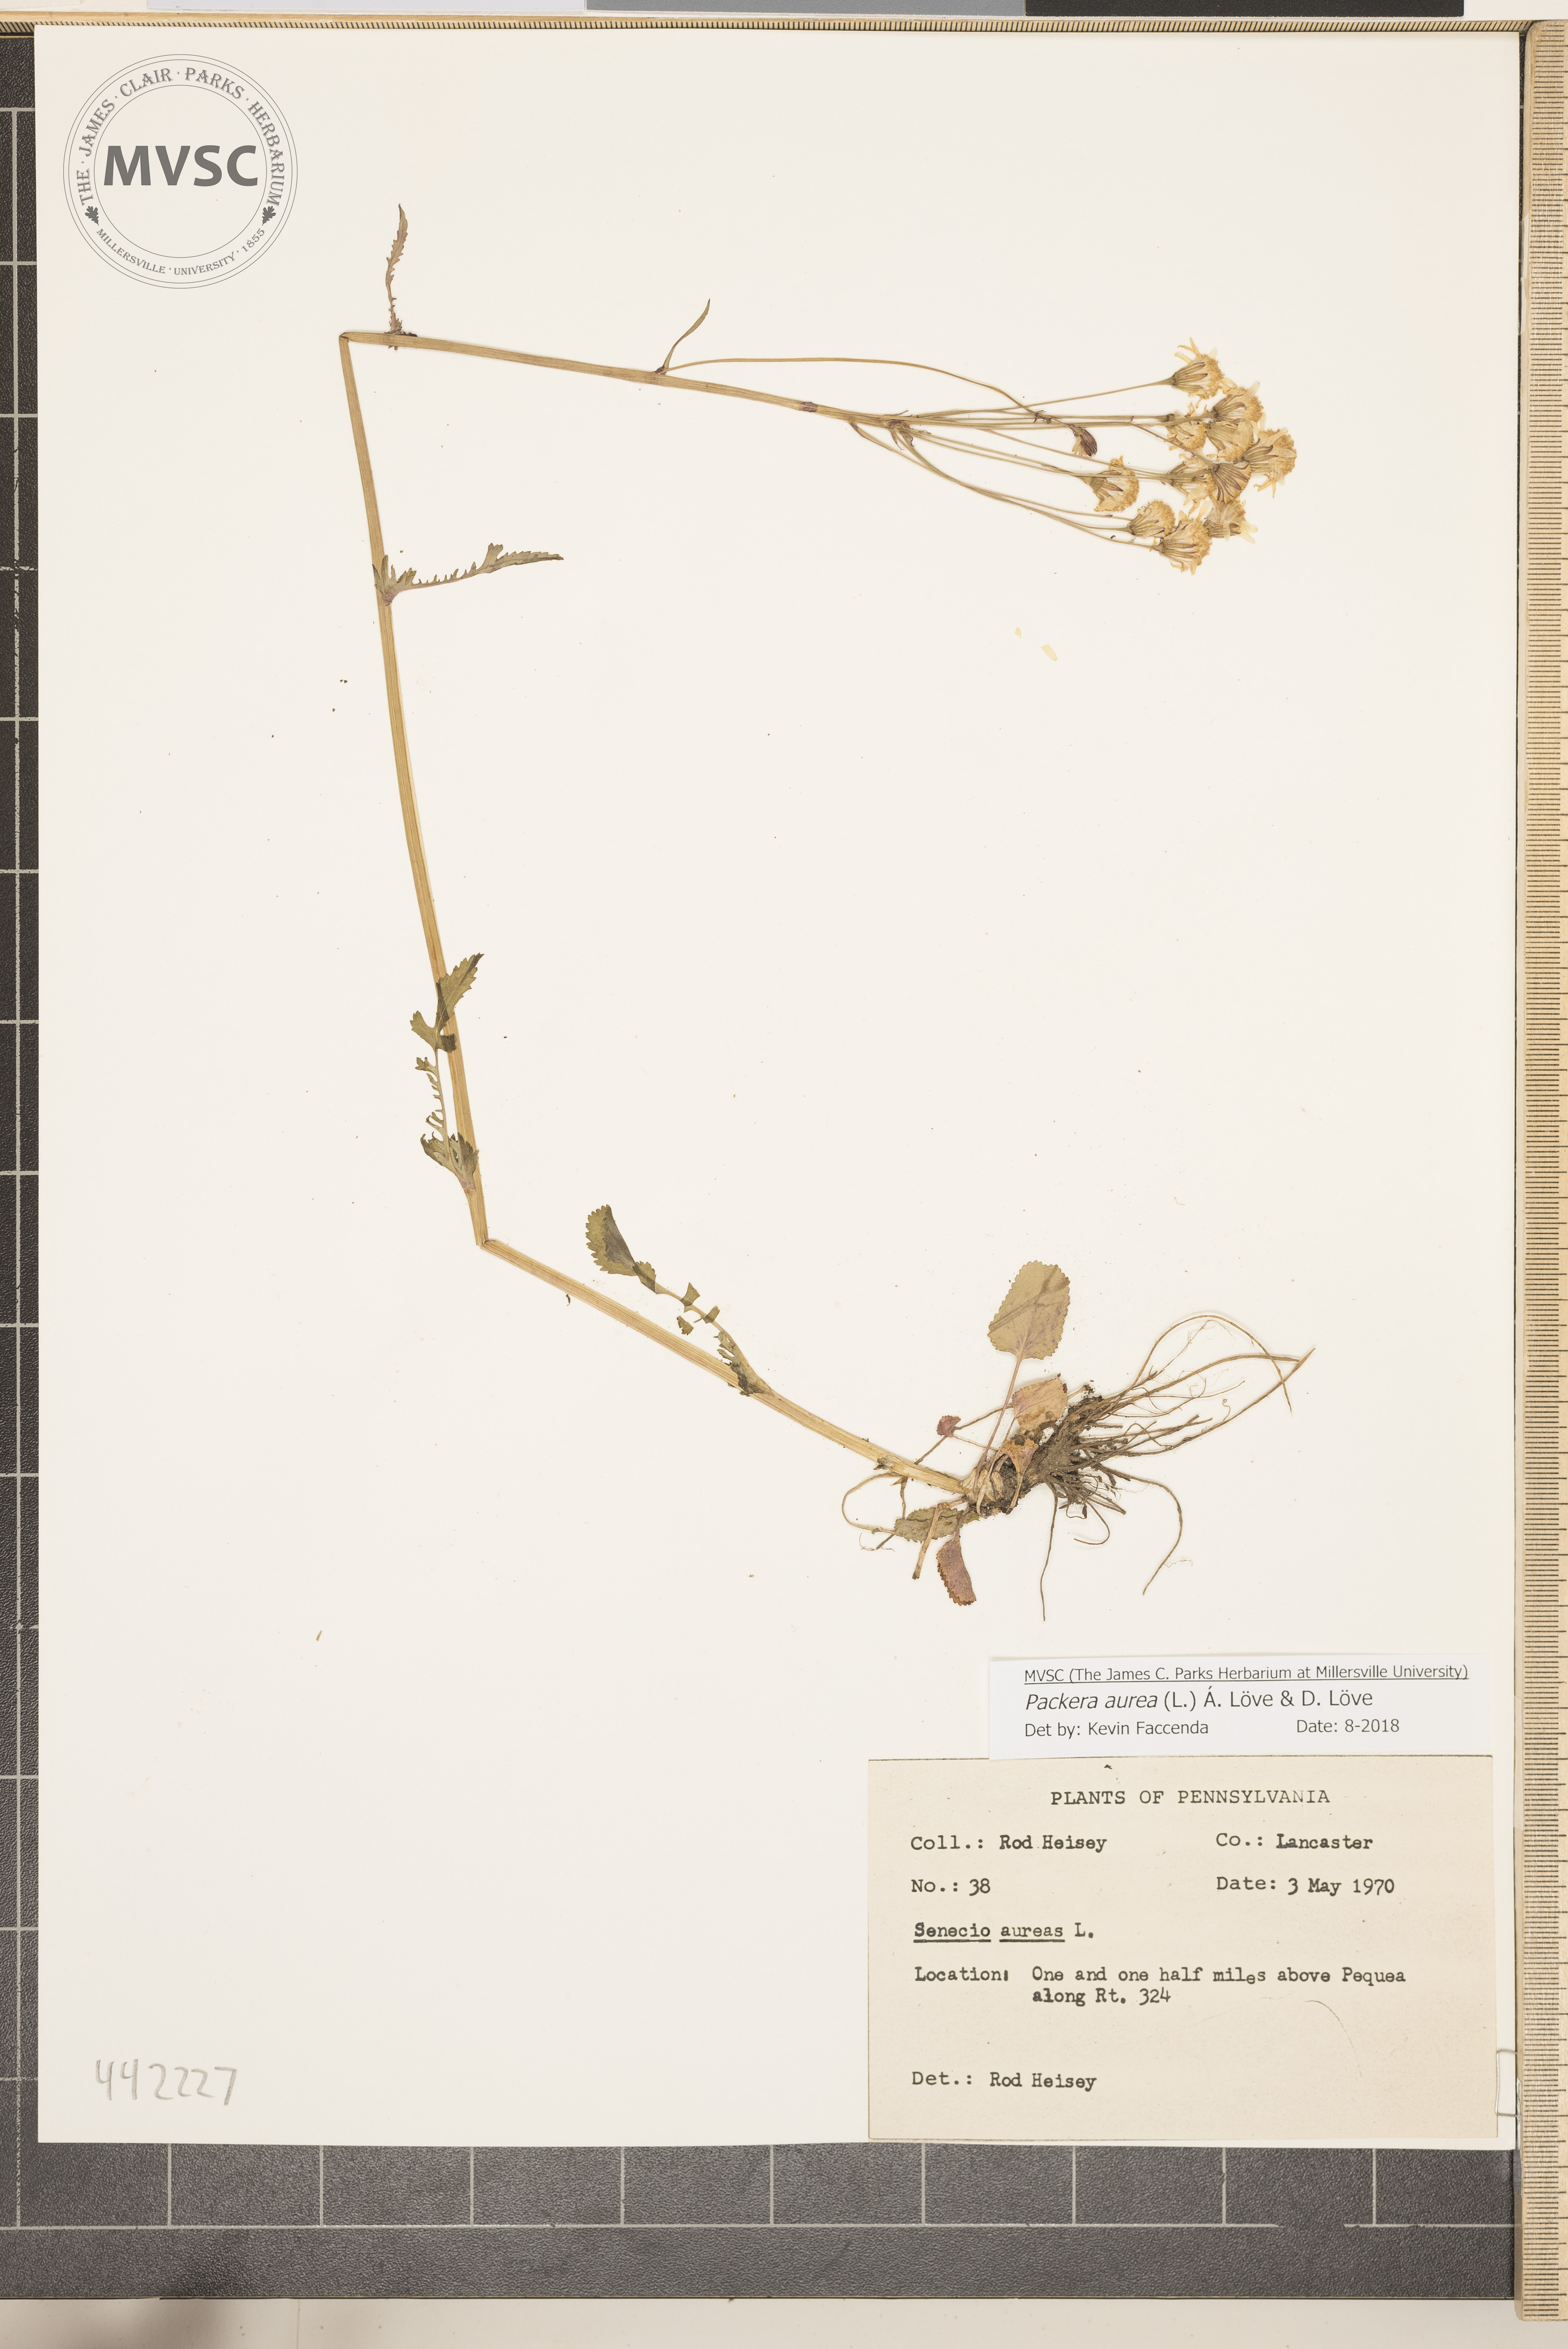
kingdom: Plantae
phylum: Tracheophyta
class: Magnoliopsida
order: Asterales
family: Asteraceae
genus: Packera
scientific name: Packera aurea
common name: Golden groundsel
